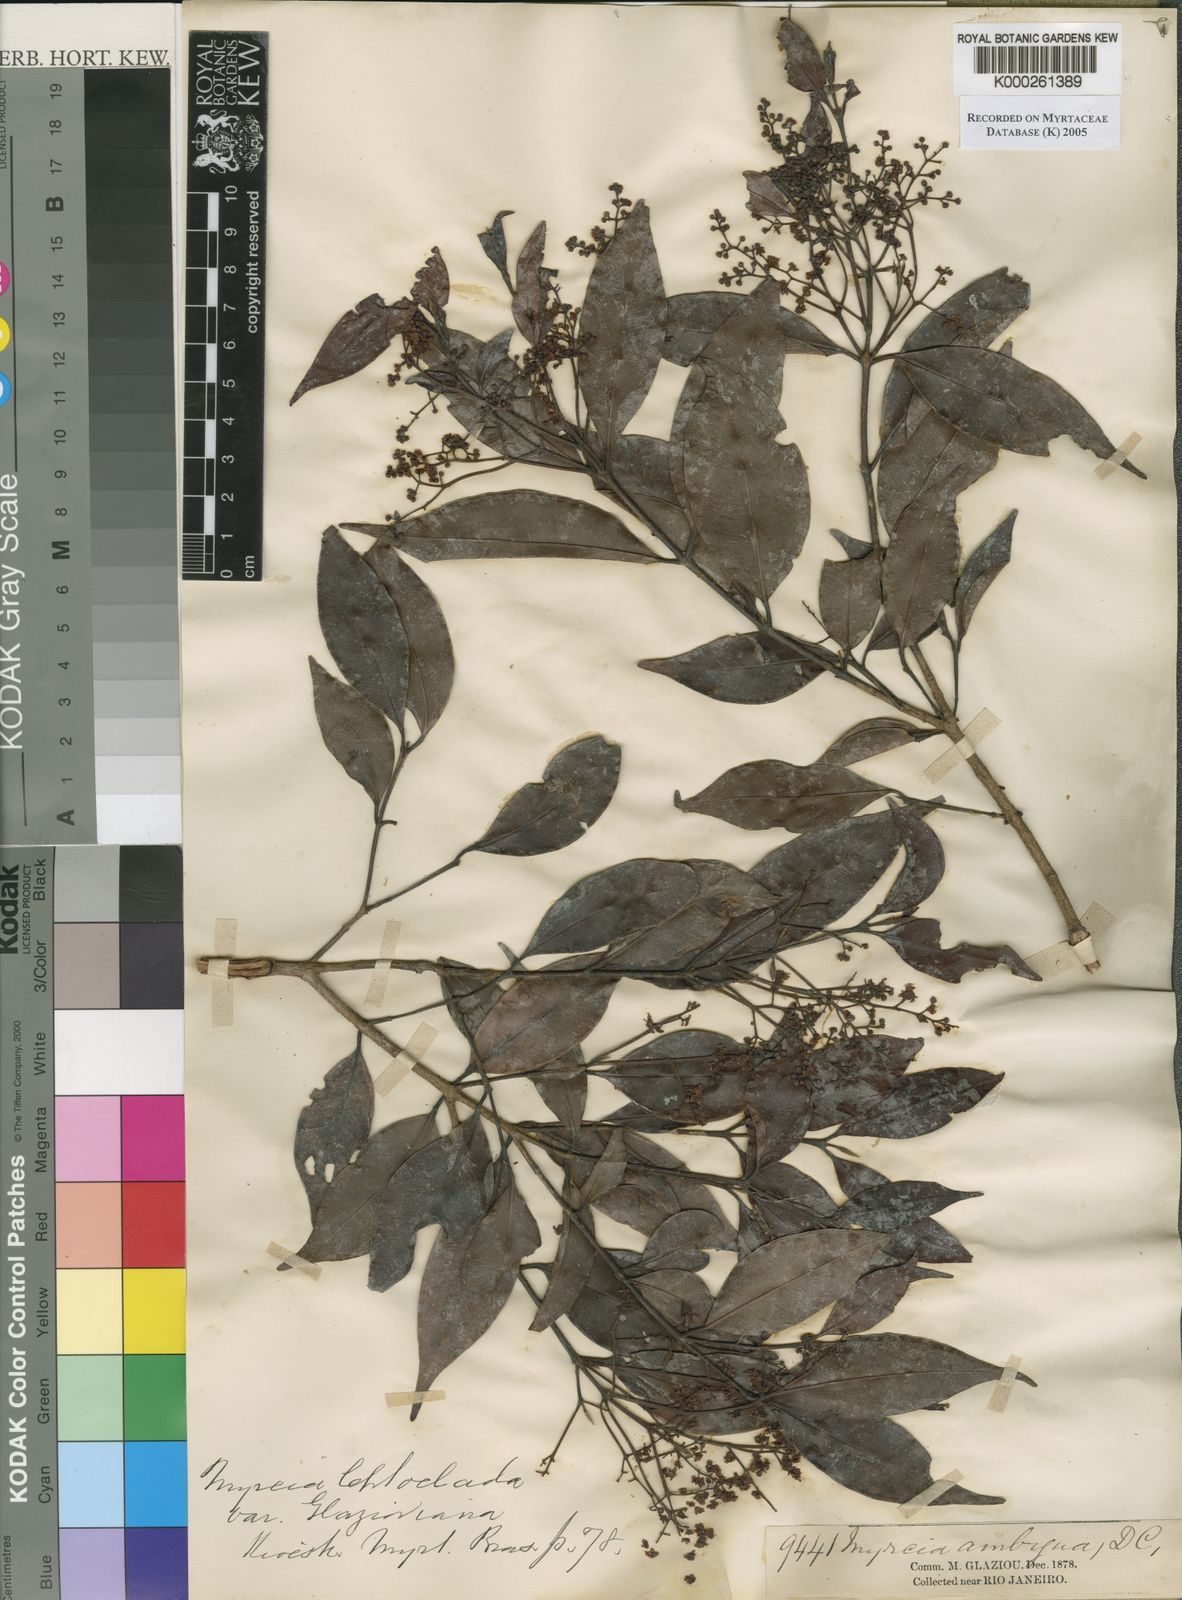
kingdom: Plantae
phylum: Tracheophyta
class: Magnoliopsida
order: Myrtales
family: Myrtaceae
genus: Myrcia
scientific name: Myrcia amazonica
